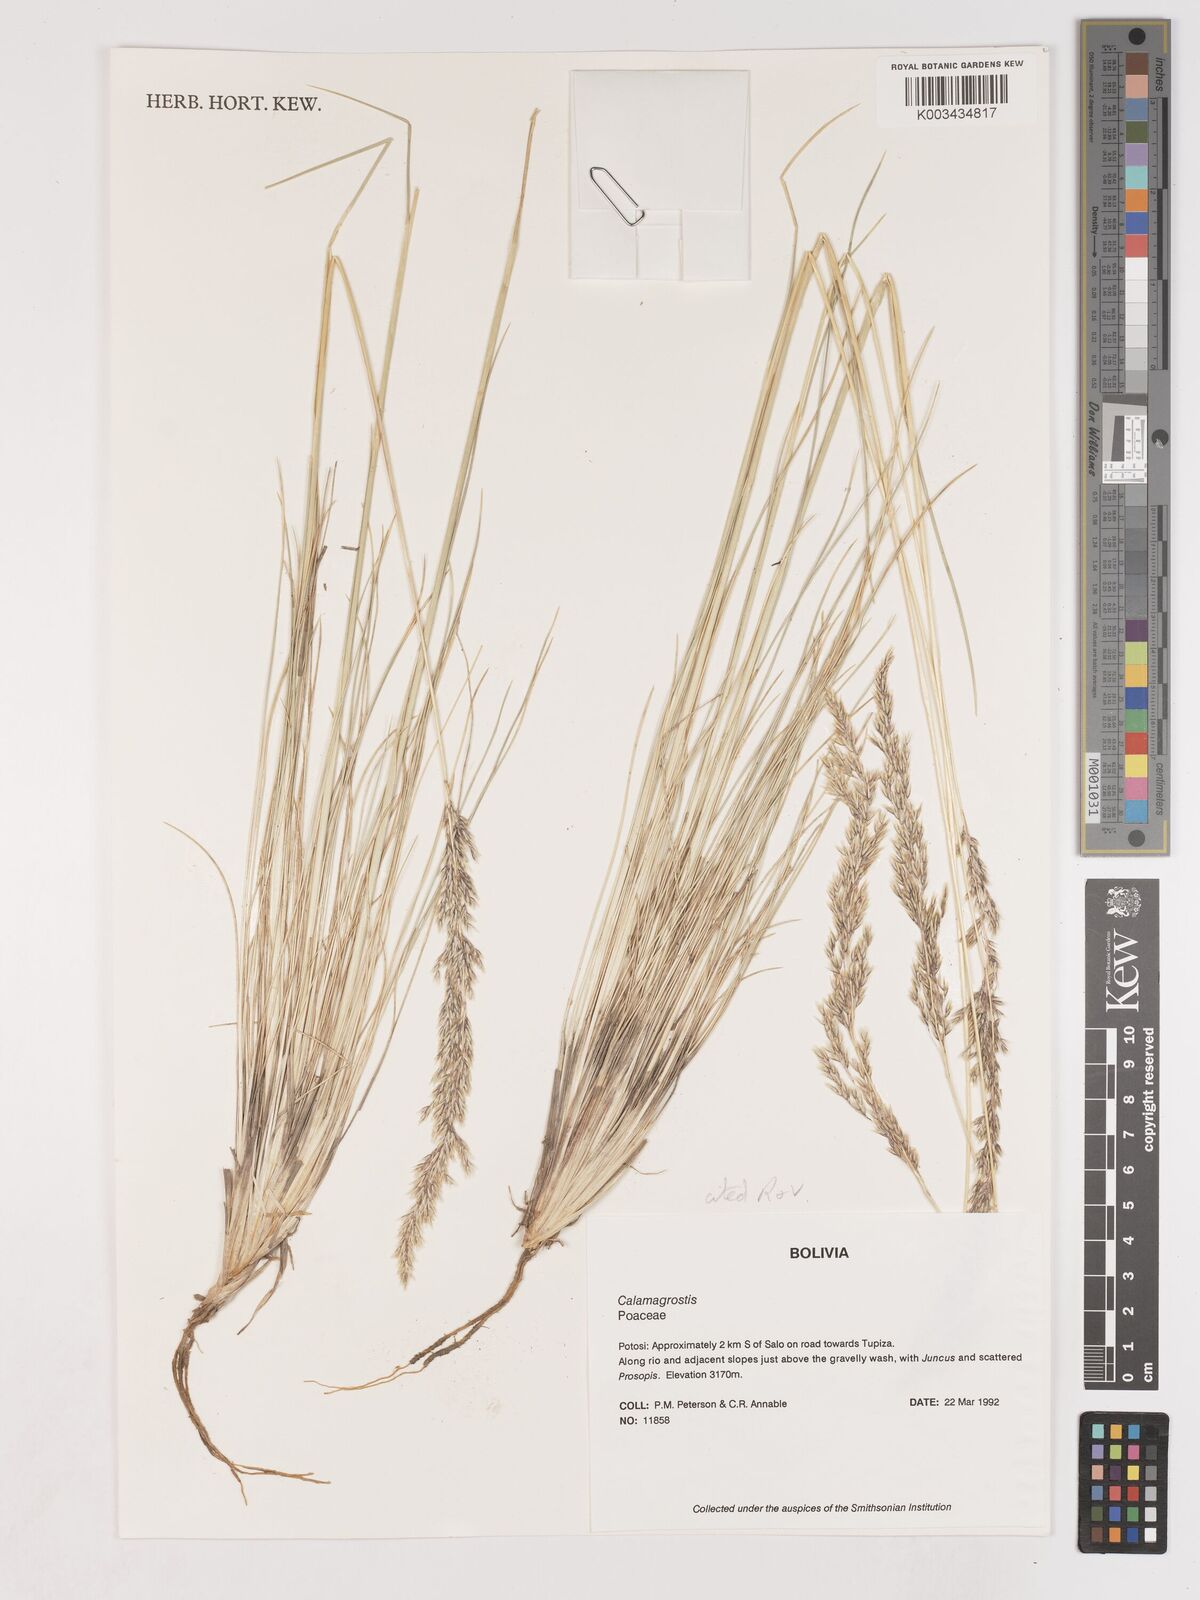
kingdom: Plantae
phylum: Tracheophyta
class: Liliopsida
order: Poales
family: Poaceae
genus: Cinnagrostis
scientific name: Cinnagrostis orbignyana
